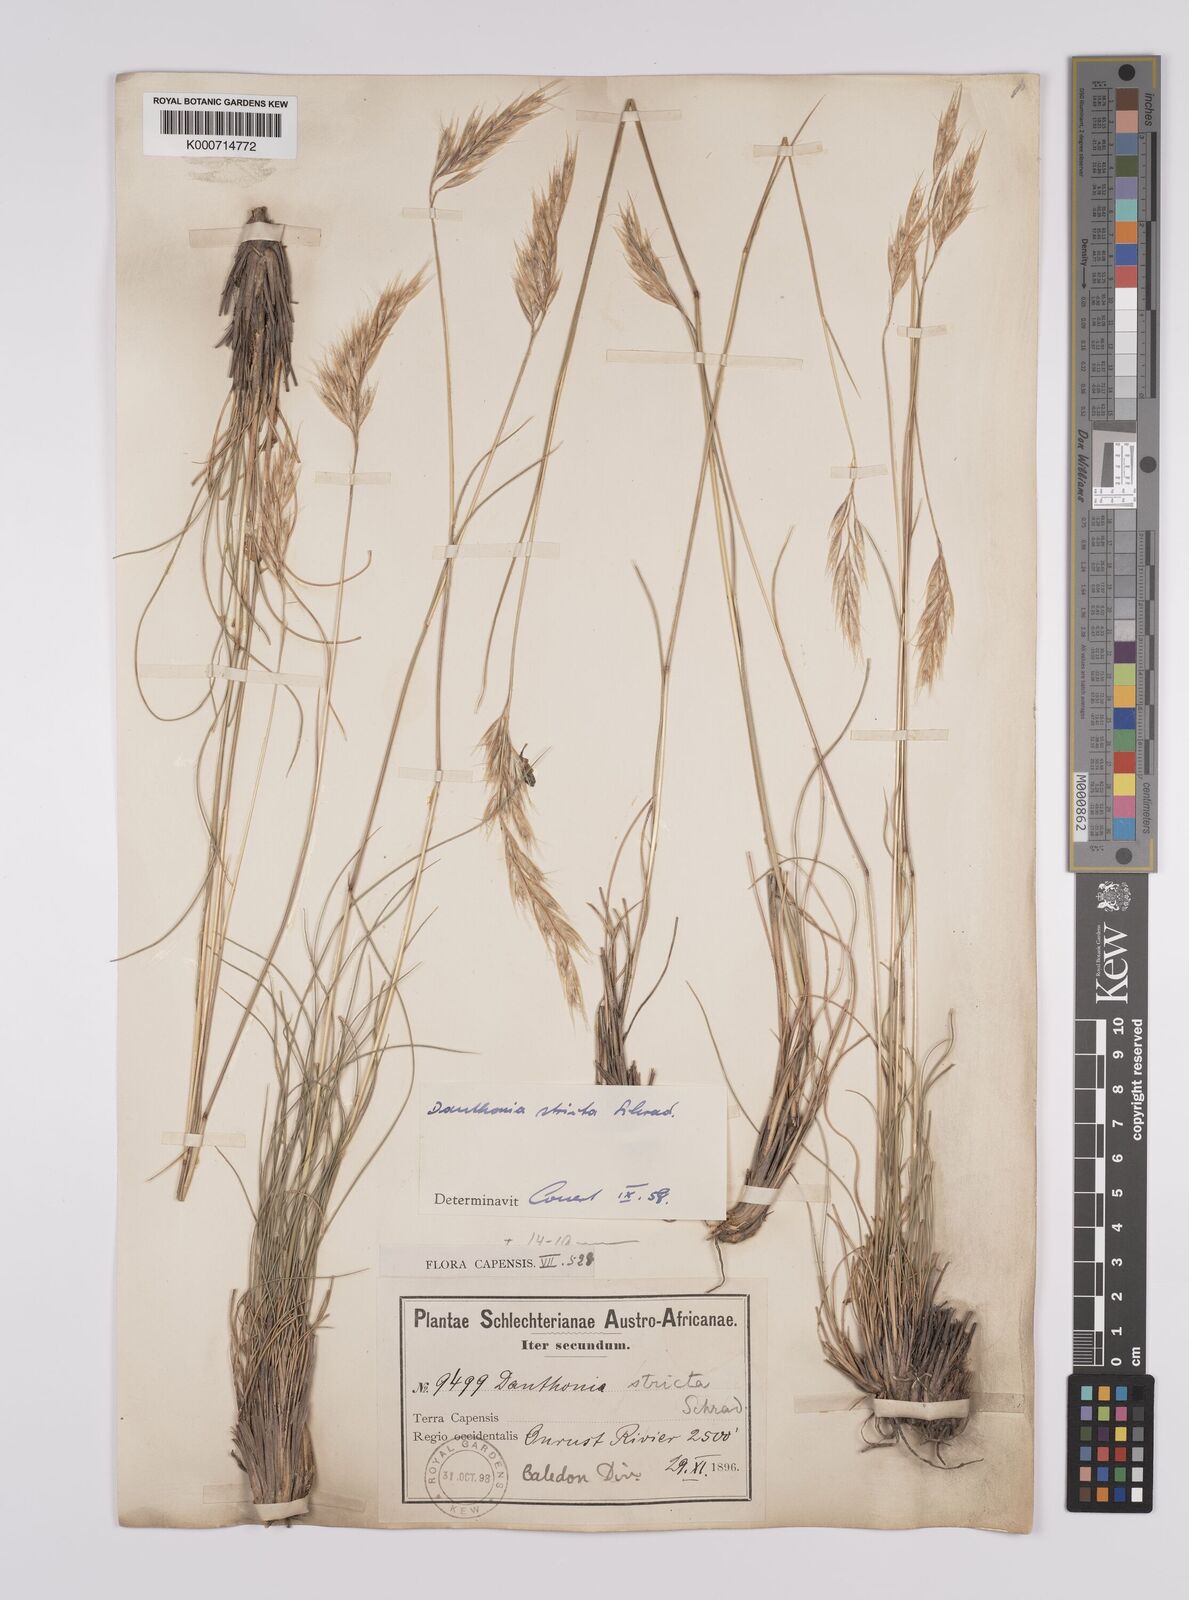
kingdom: Plantae
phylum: Tracheophyta
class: Liliopsida
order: Poales
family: Poaceae
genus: Rytidosperma
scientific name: Rytidosperma
